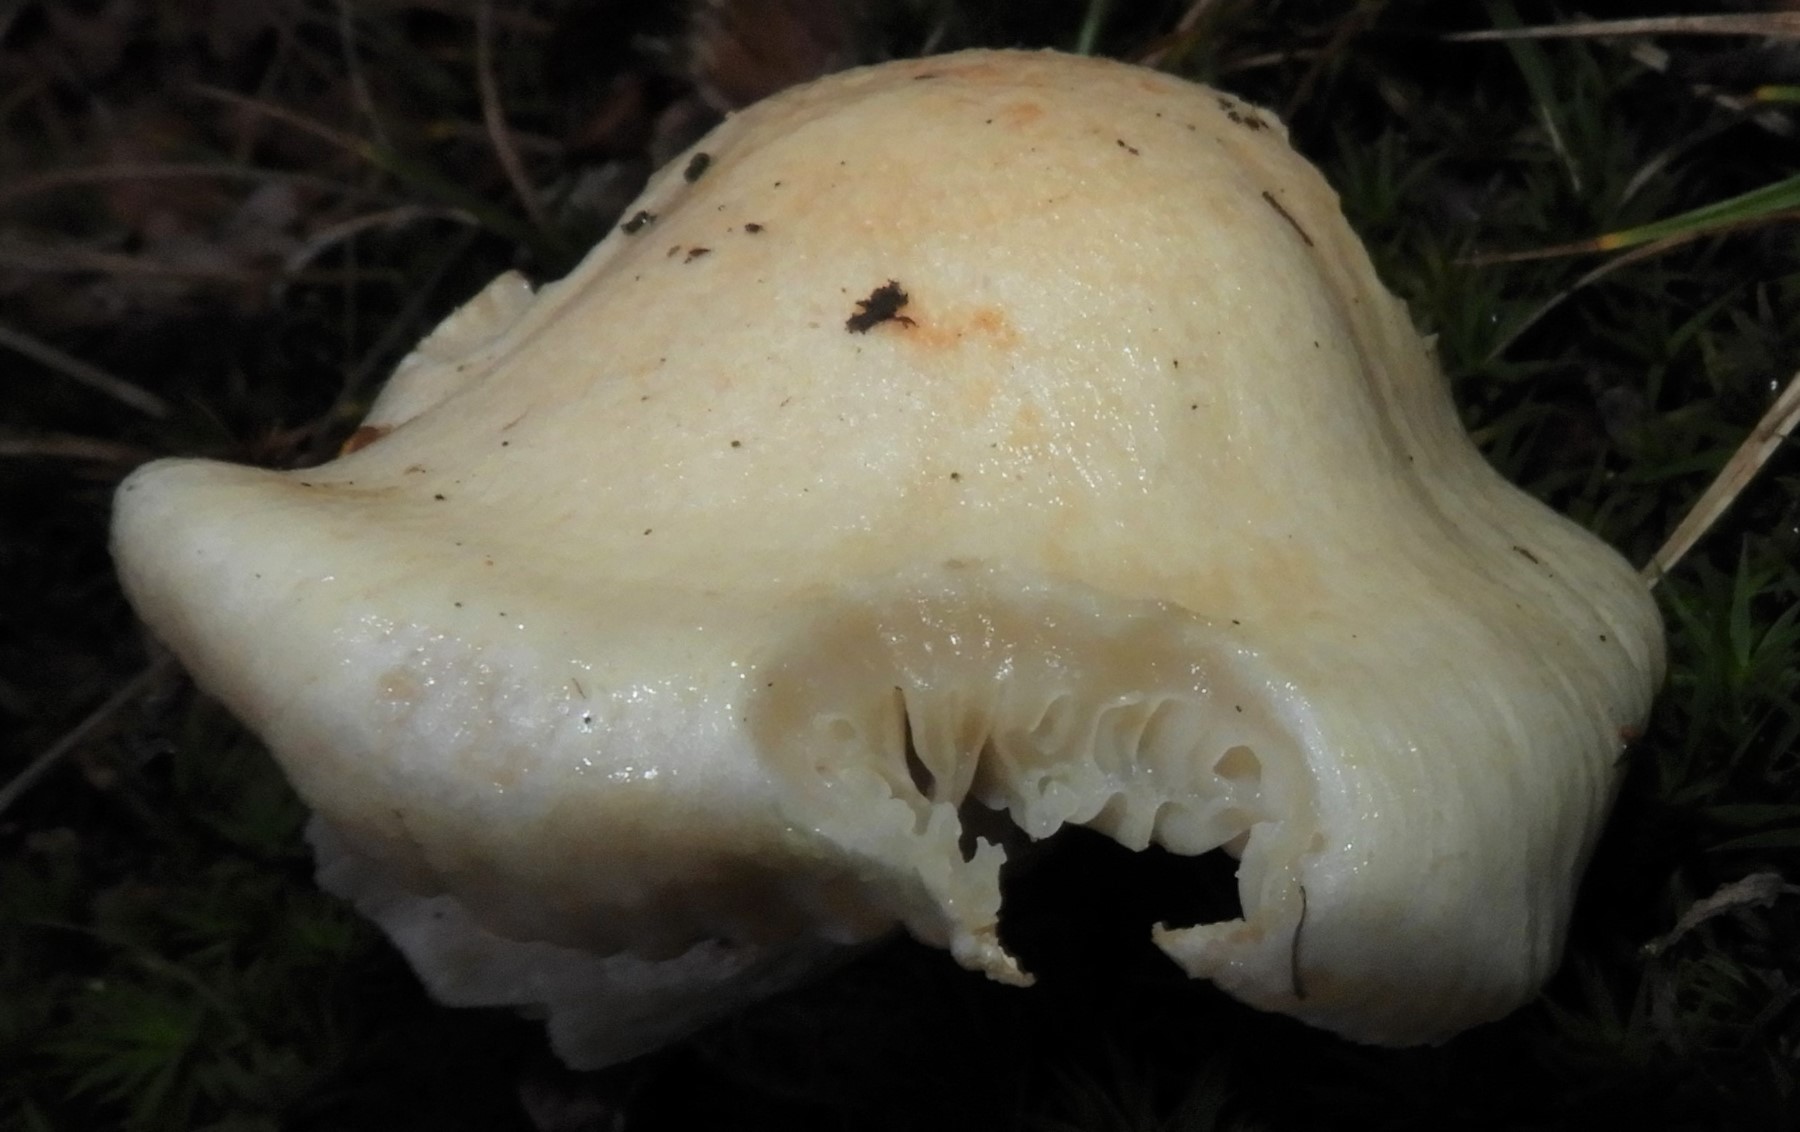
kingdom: Fungi
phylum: Basidiomycota
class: Agaricomycetes
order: Agaricales
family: Hygrophoraceae
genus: Hygrophorus
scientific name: Hygrophorus penarius
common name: spiselig sneglehat
